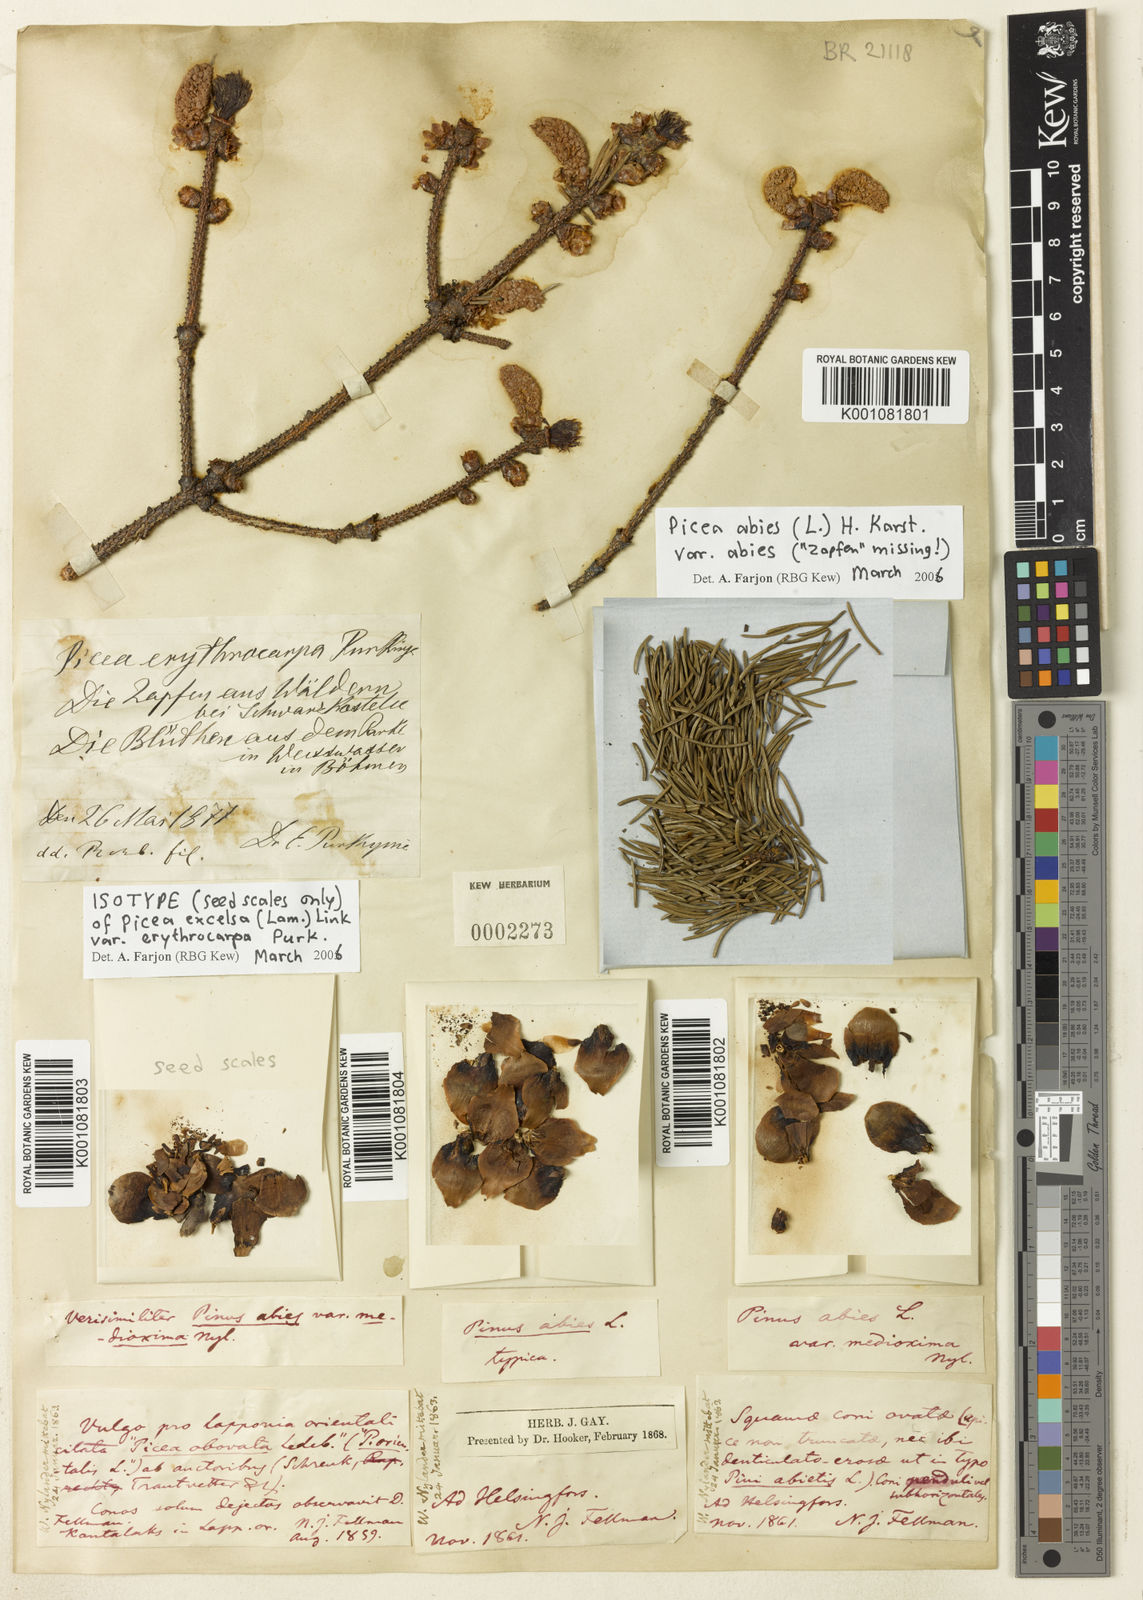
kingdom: Plantae
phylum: Tracheophyta
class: Pinopsida
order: Pinales
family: Pinaceae
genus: Picea
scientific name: Picea abies
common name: Norway spruce
